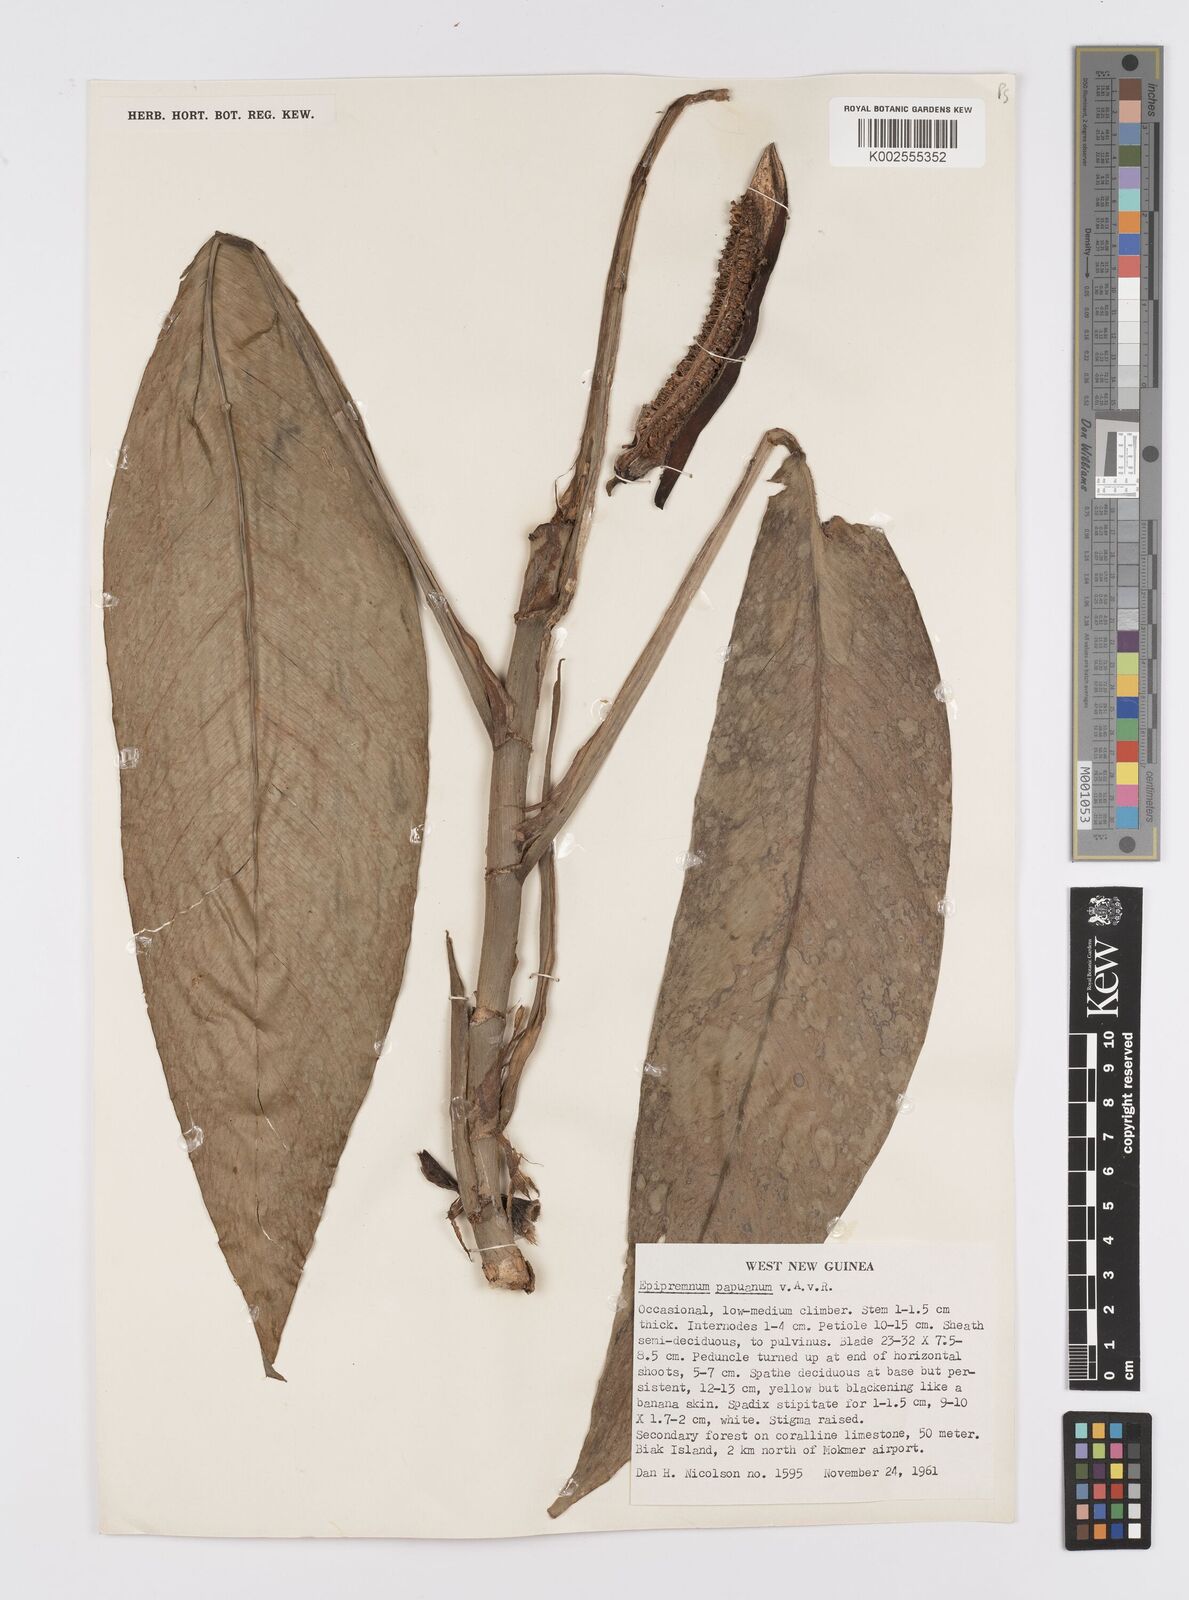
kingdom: Plantae
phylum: Tracheophyta
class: Liliopsida
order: Alismatales
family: Araceae
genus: Epipremnum
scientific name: Epipremnum papuanum
